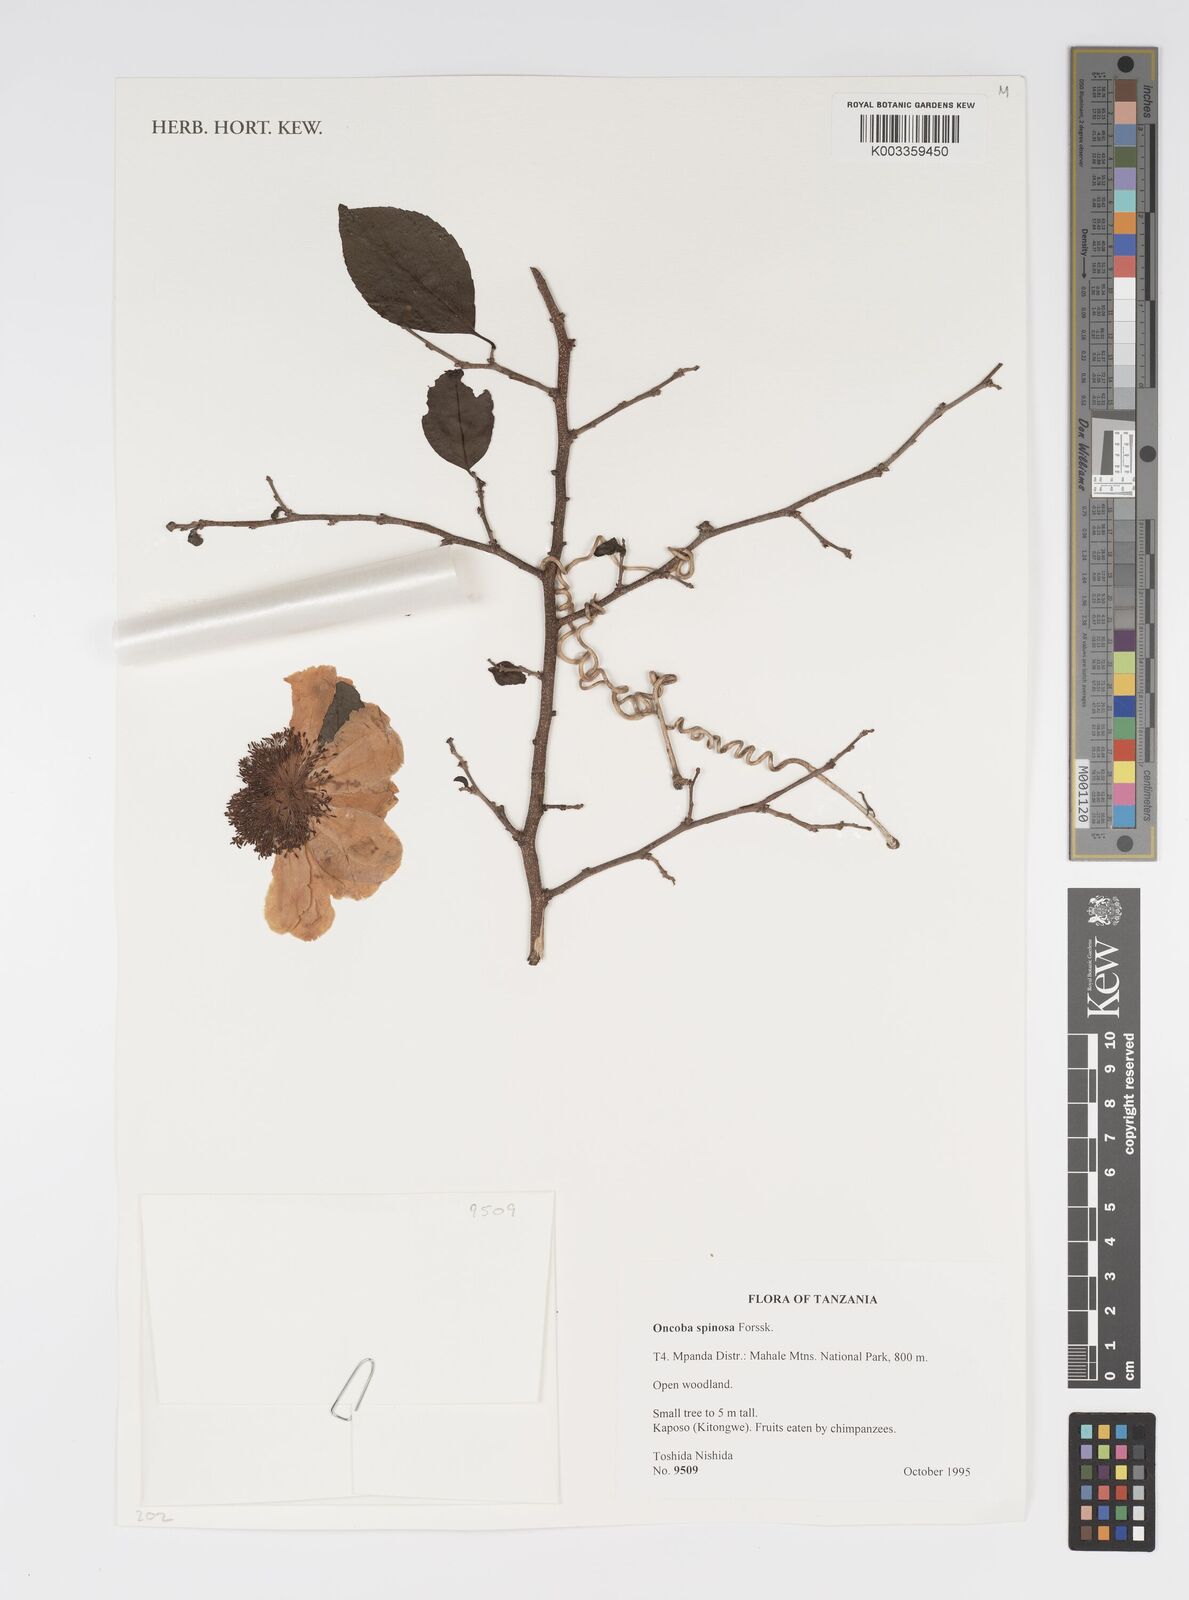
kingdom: Plantae
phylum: Tracheophyta
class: Magnoliopsida
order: Malpighiales
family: Salicaceae
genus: Oncoba
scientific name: Oncoba spinosa
